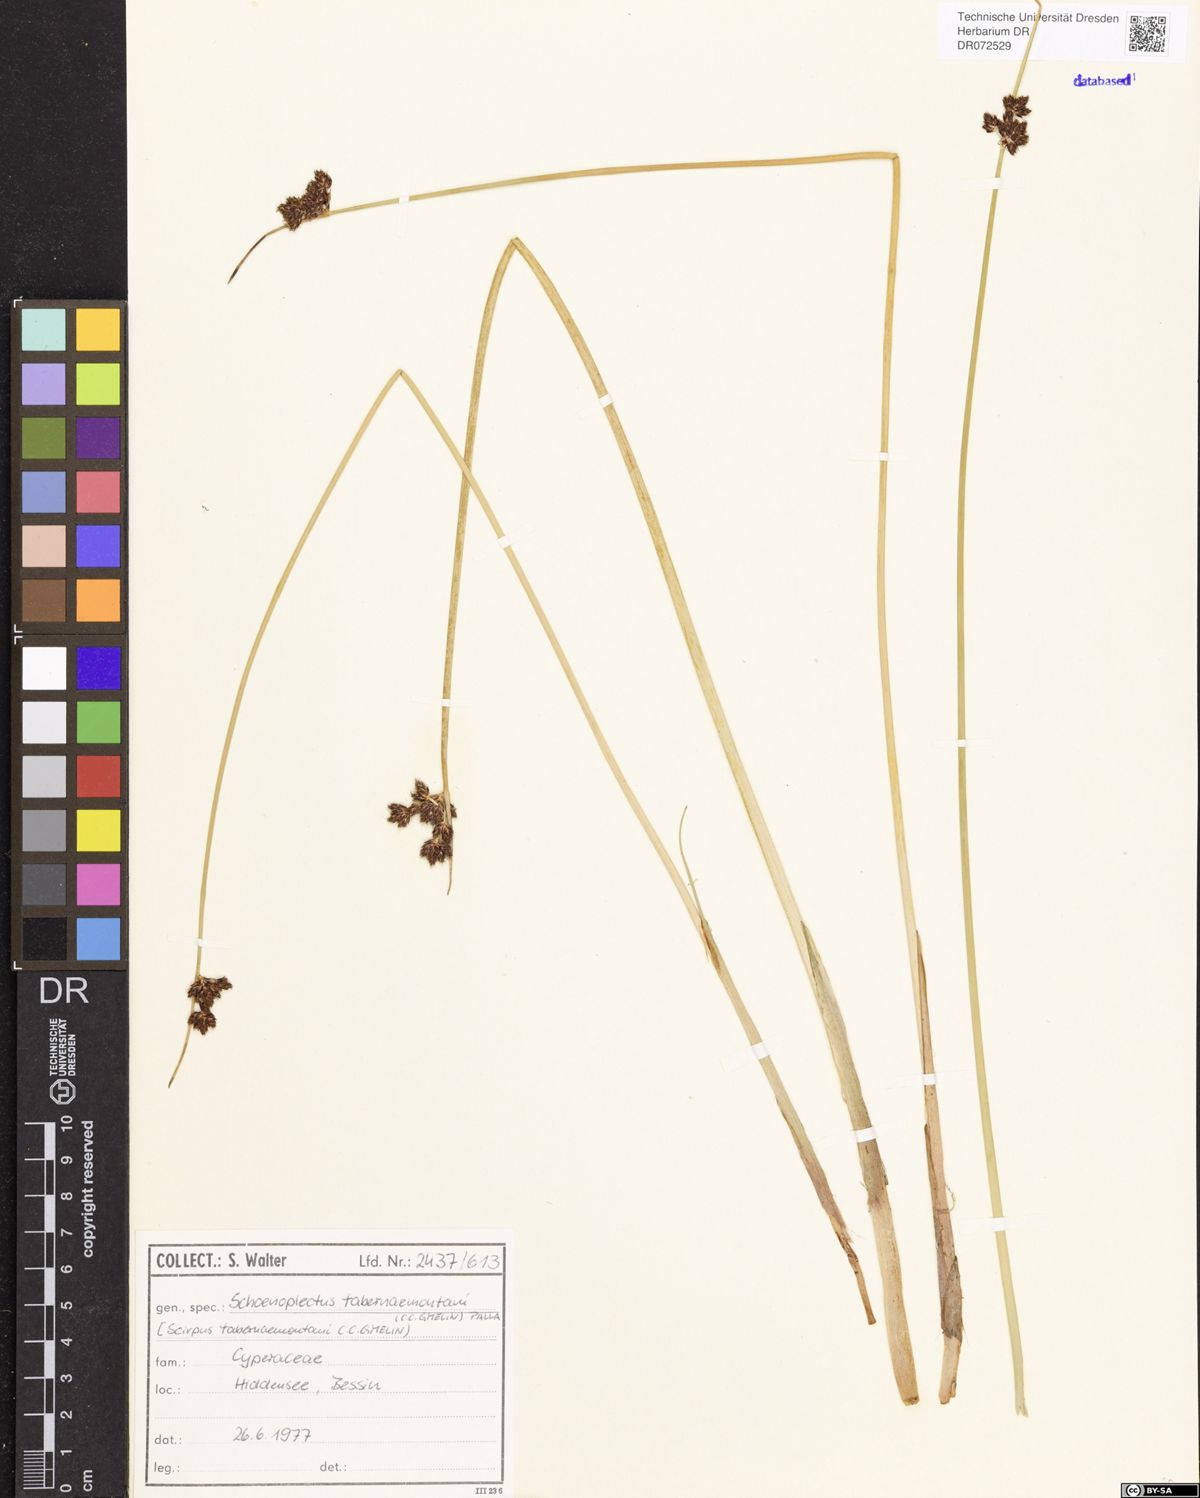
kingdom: Plantae
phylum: Tracheophyta
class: Liliopsida
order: Poales
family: Cyperaceae
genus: Schoenoplectus
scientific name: Schoenoplectus tabernaemontani
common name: Grey club-rush
